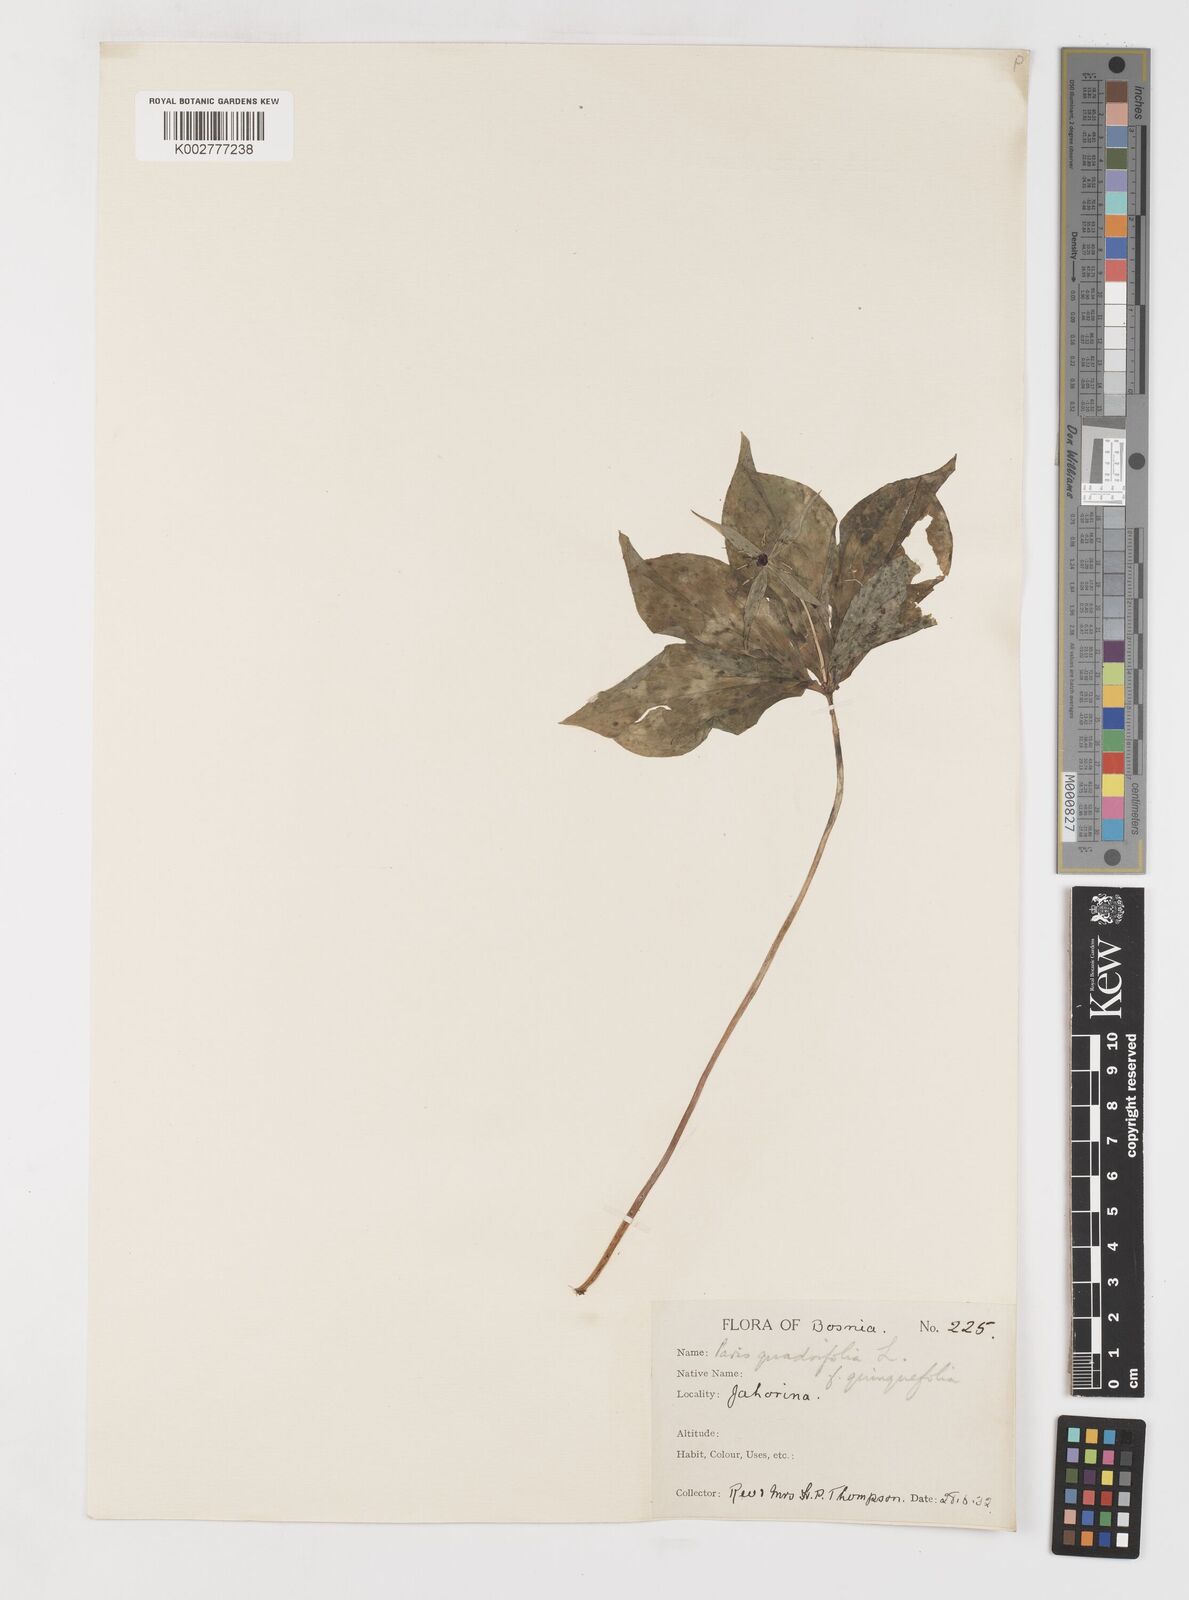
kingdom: Plantae
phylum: Tracheophyta
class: Liliopsida
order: Liliales
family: Melanthiaceae
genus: Paris
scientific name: Paris
